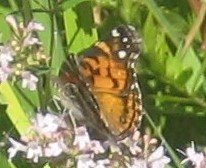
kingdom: Animalia
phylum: Arthropoda
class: Insecta
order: Lepidoptera
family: Nymphalidae
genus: Vanessa
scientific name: Vanessa virginiensis
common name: American Lady
